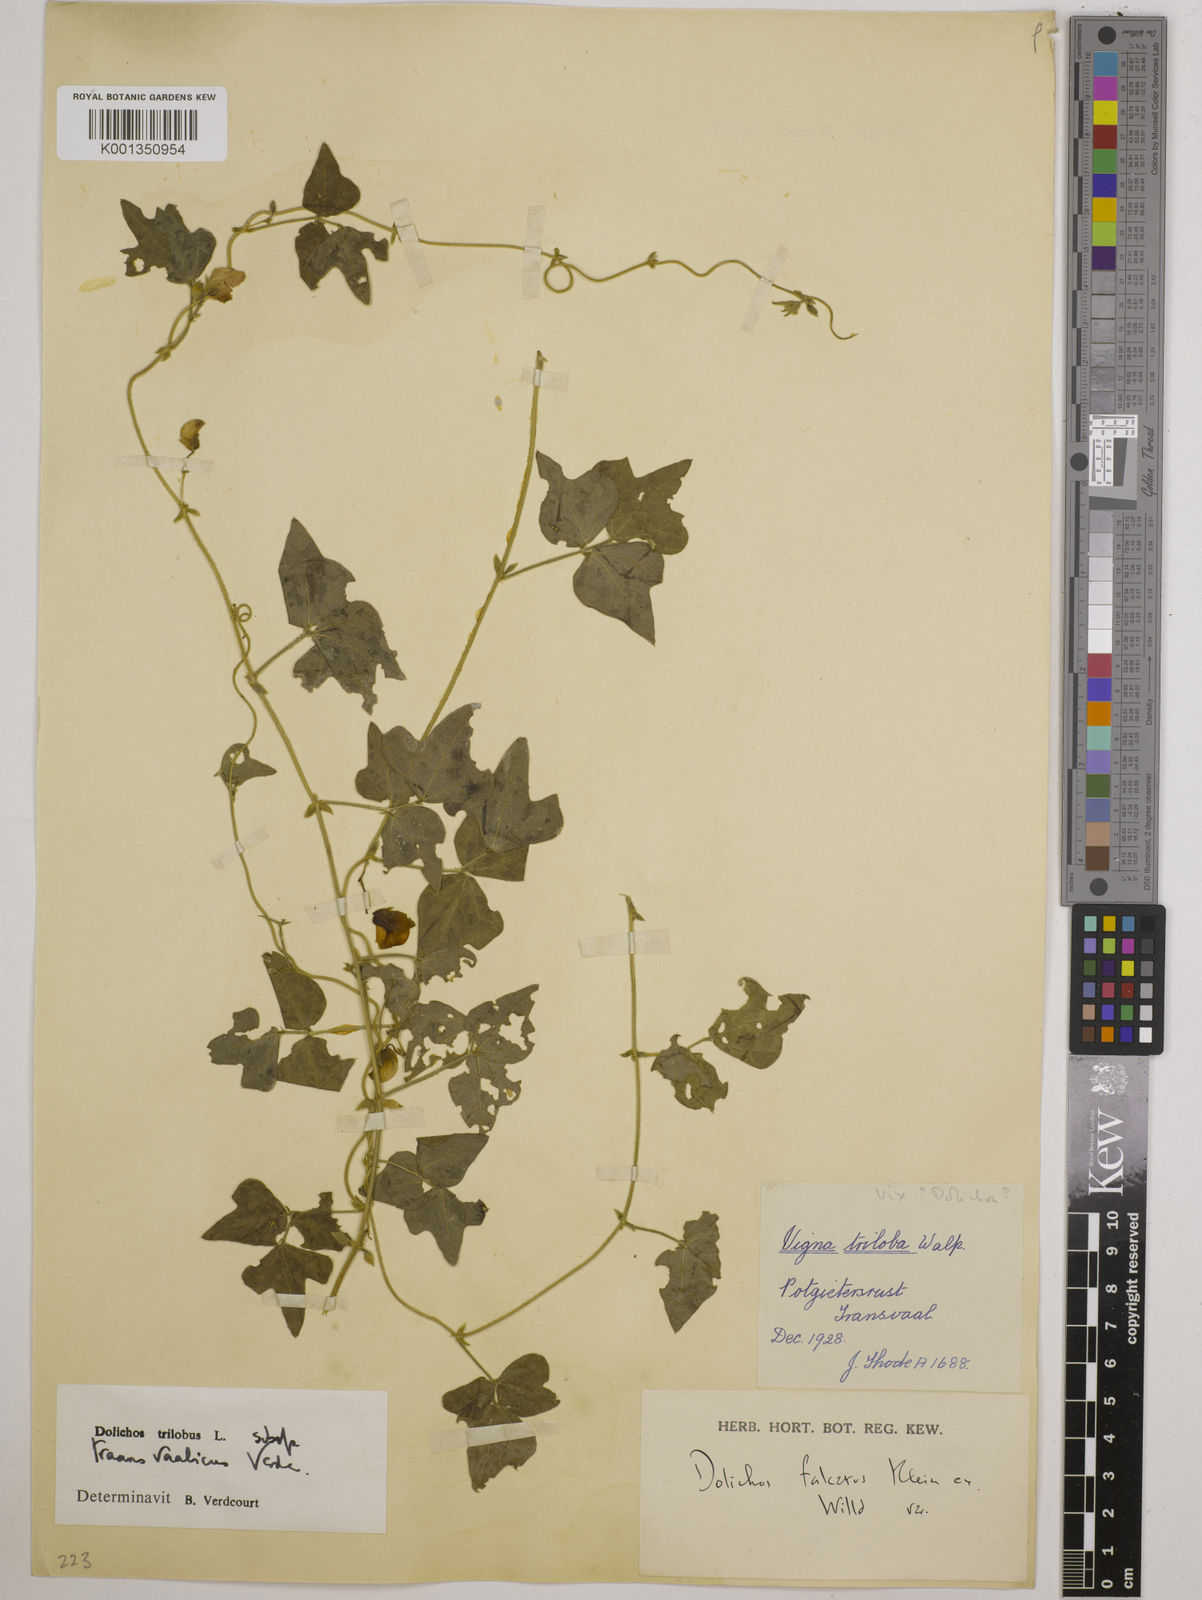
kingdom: Plantae
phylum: Tracheophyta
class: Magnoliopsida
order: Fabales
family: Fabaceae
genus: Dolichos
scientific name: Dolichos
